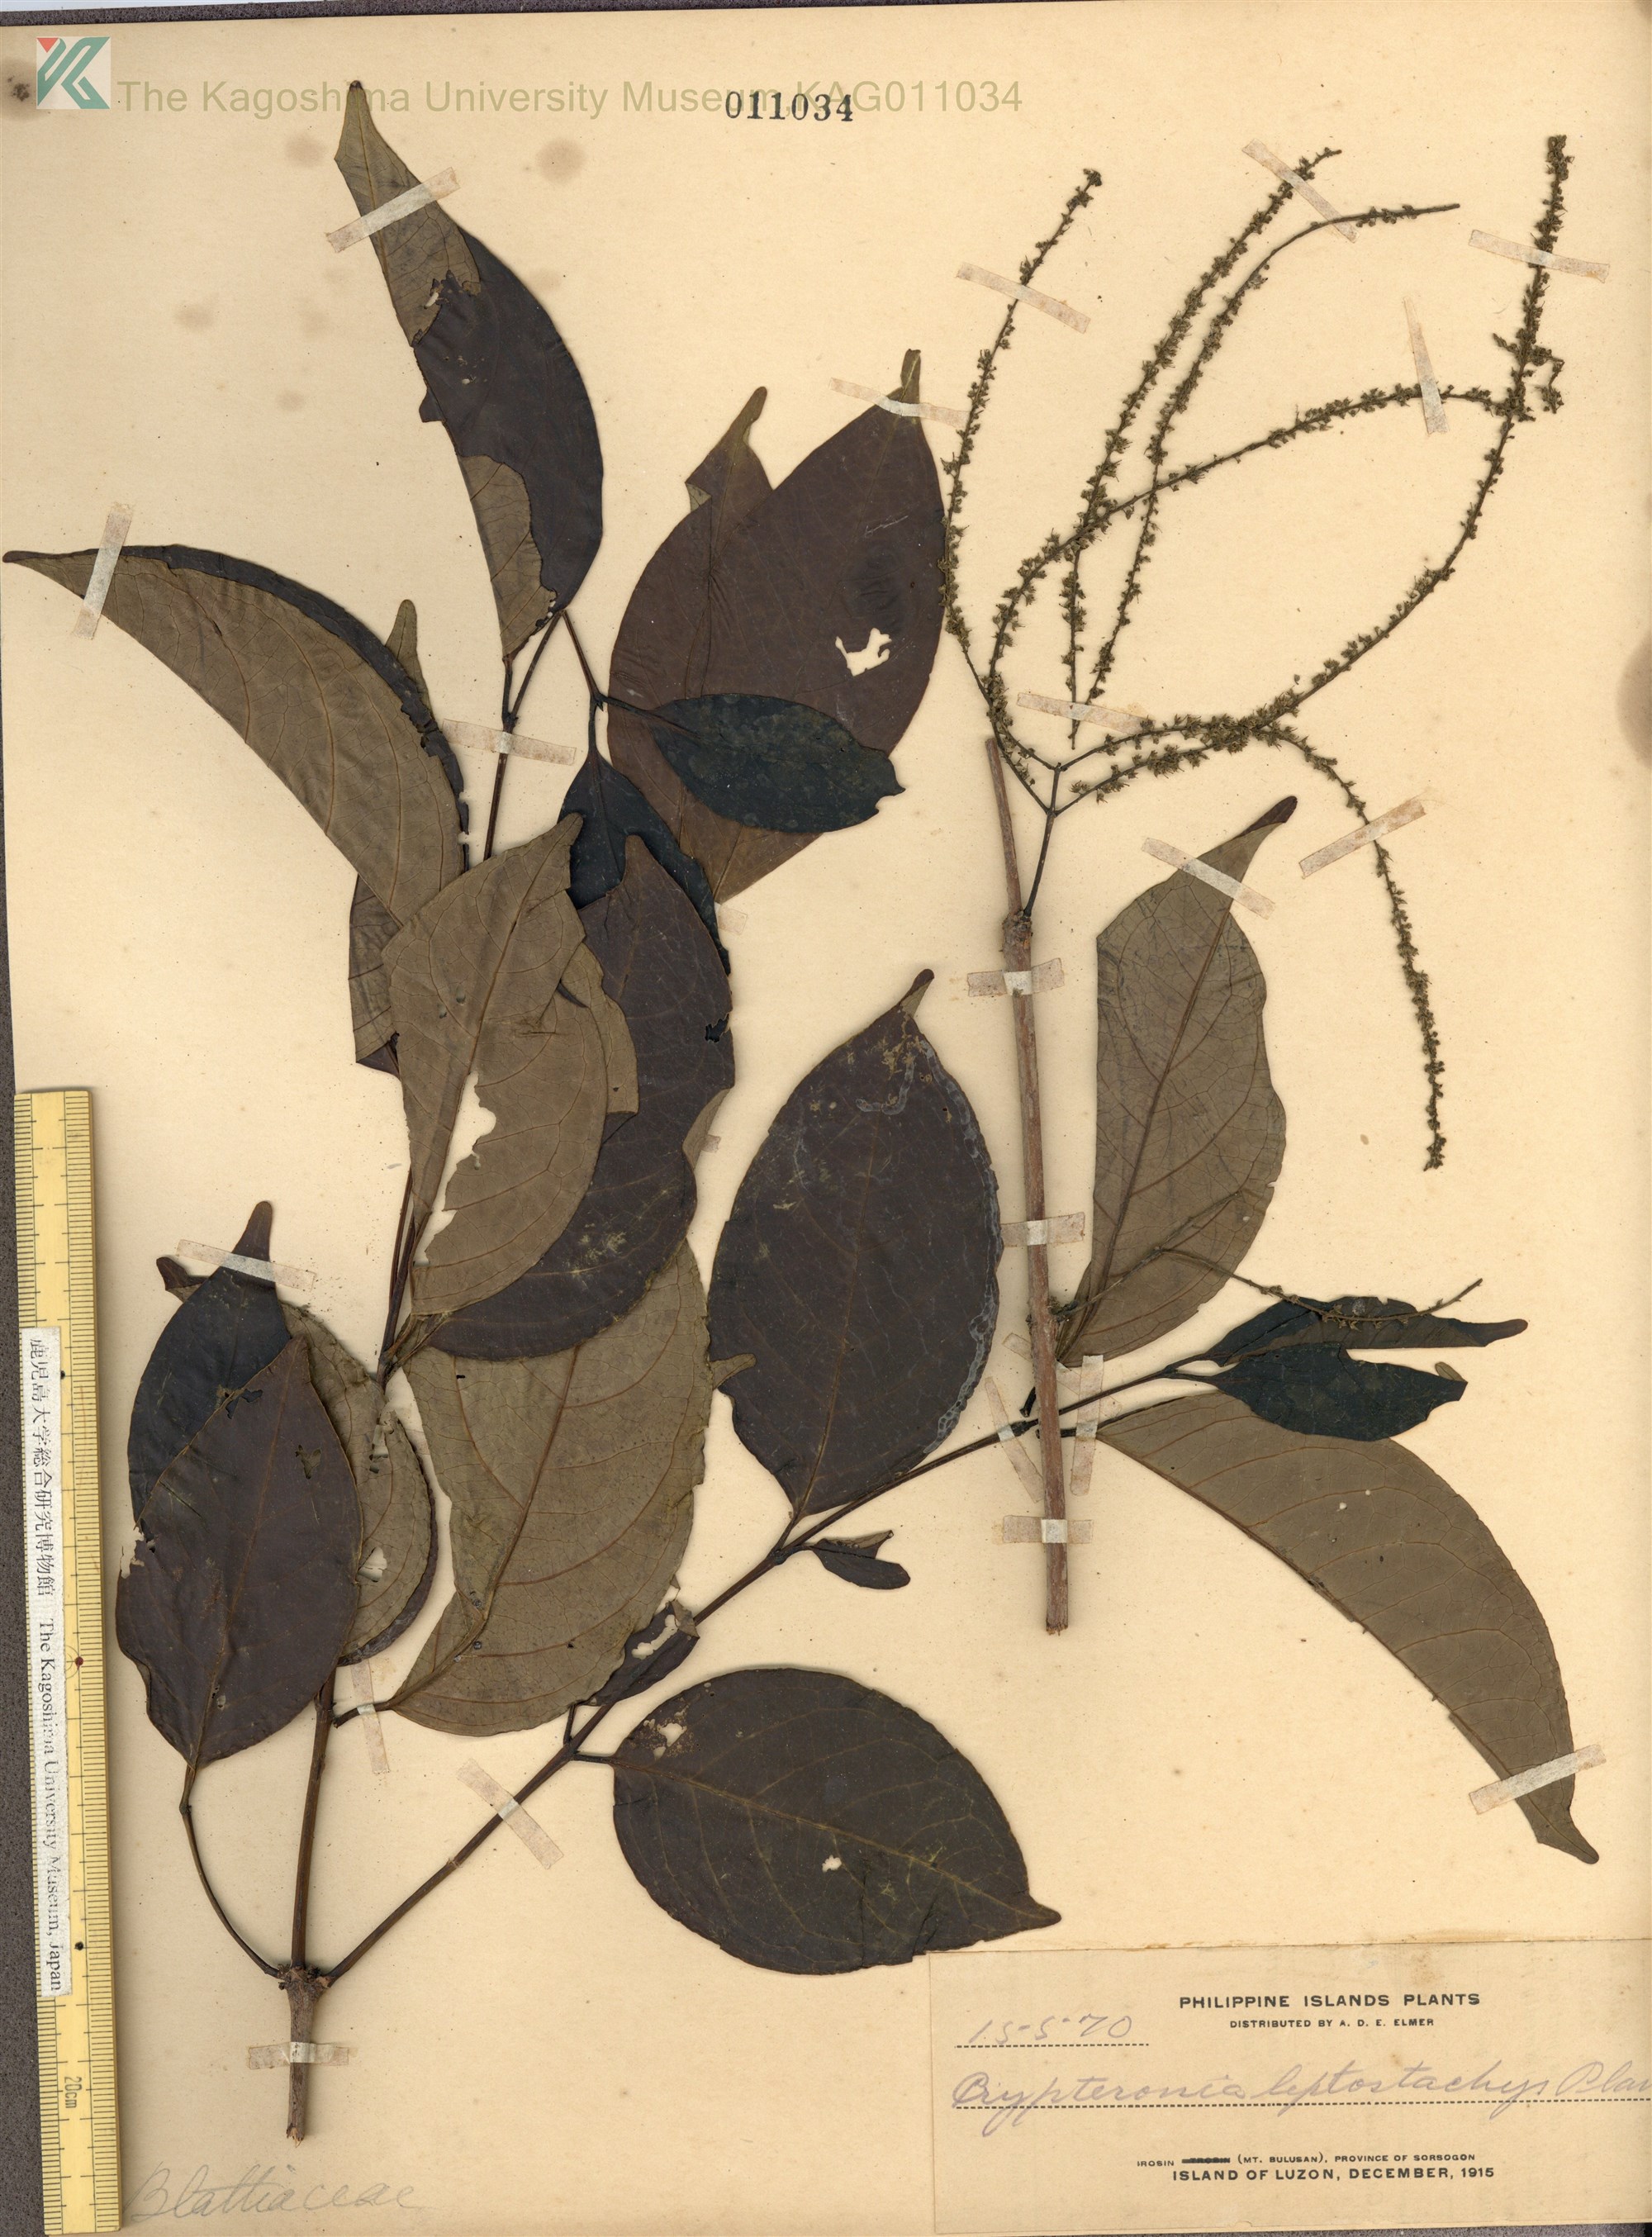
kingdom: Plantae
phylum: Tracheophyta
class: Magnoliopsida
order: Myrtales
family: Crypteroniaceae
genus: Crypteronia
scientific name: Crypteronia paniculata
